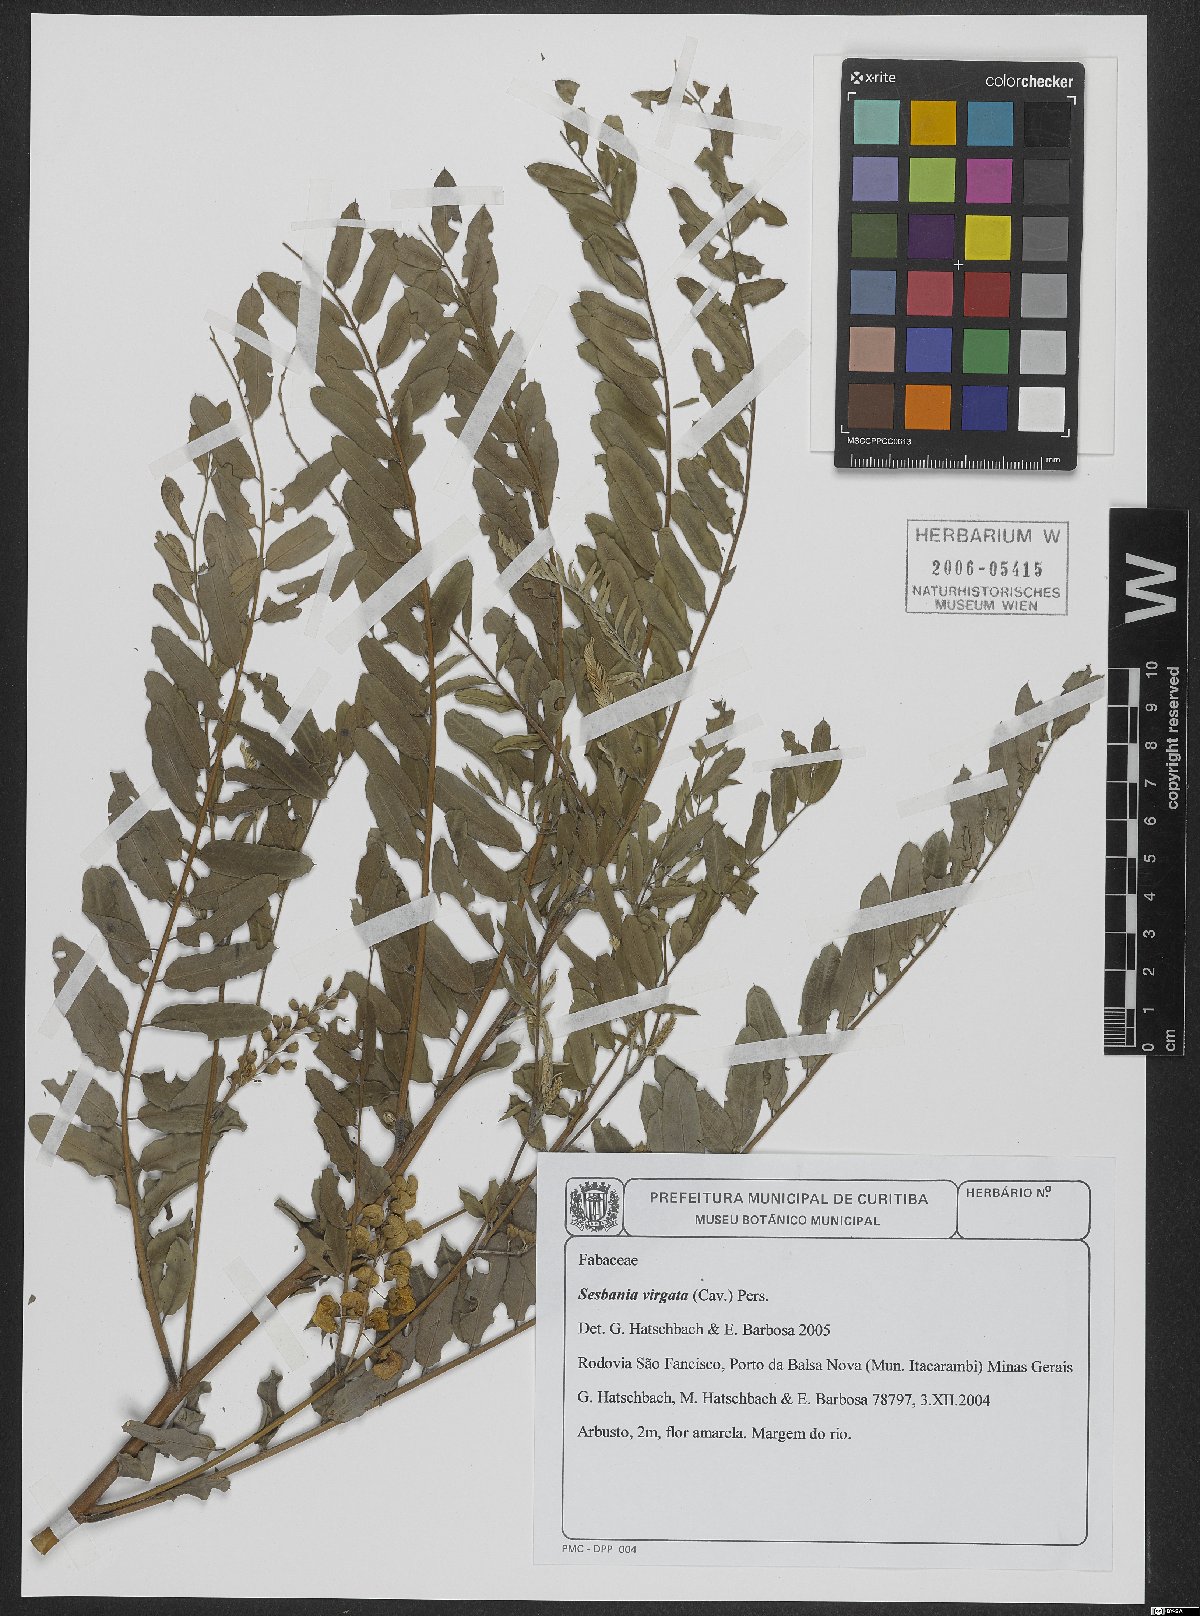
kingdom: Plantae
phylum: Tracheophyta
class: Magnoliopsida
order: Fabales
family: Fabaceae
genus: Sesbania
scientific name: Sesbania virgata
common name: Wand riverhemp
